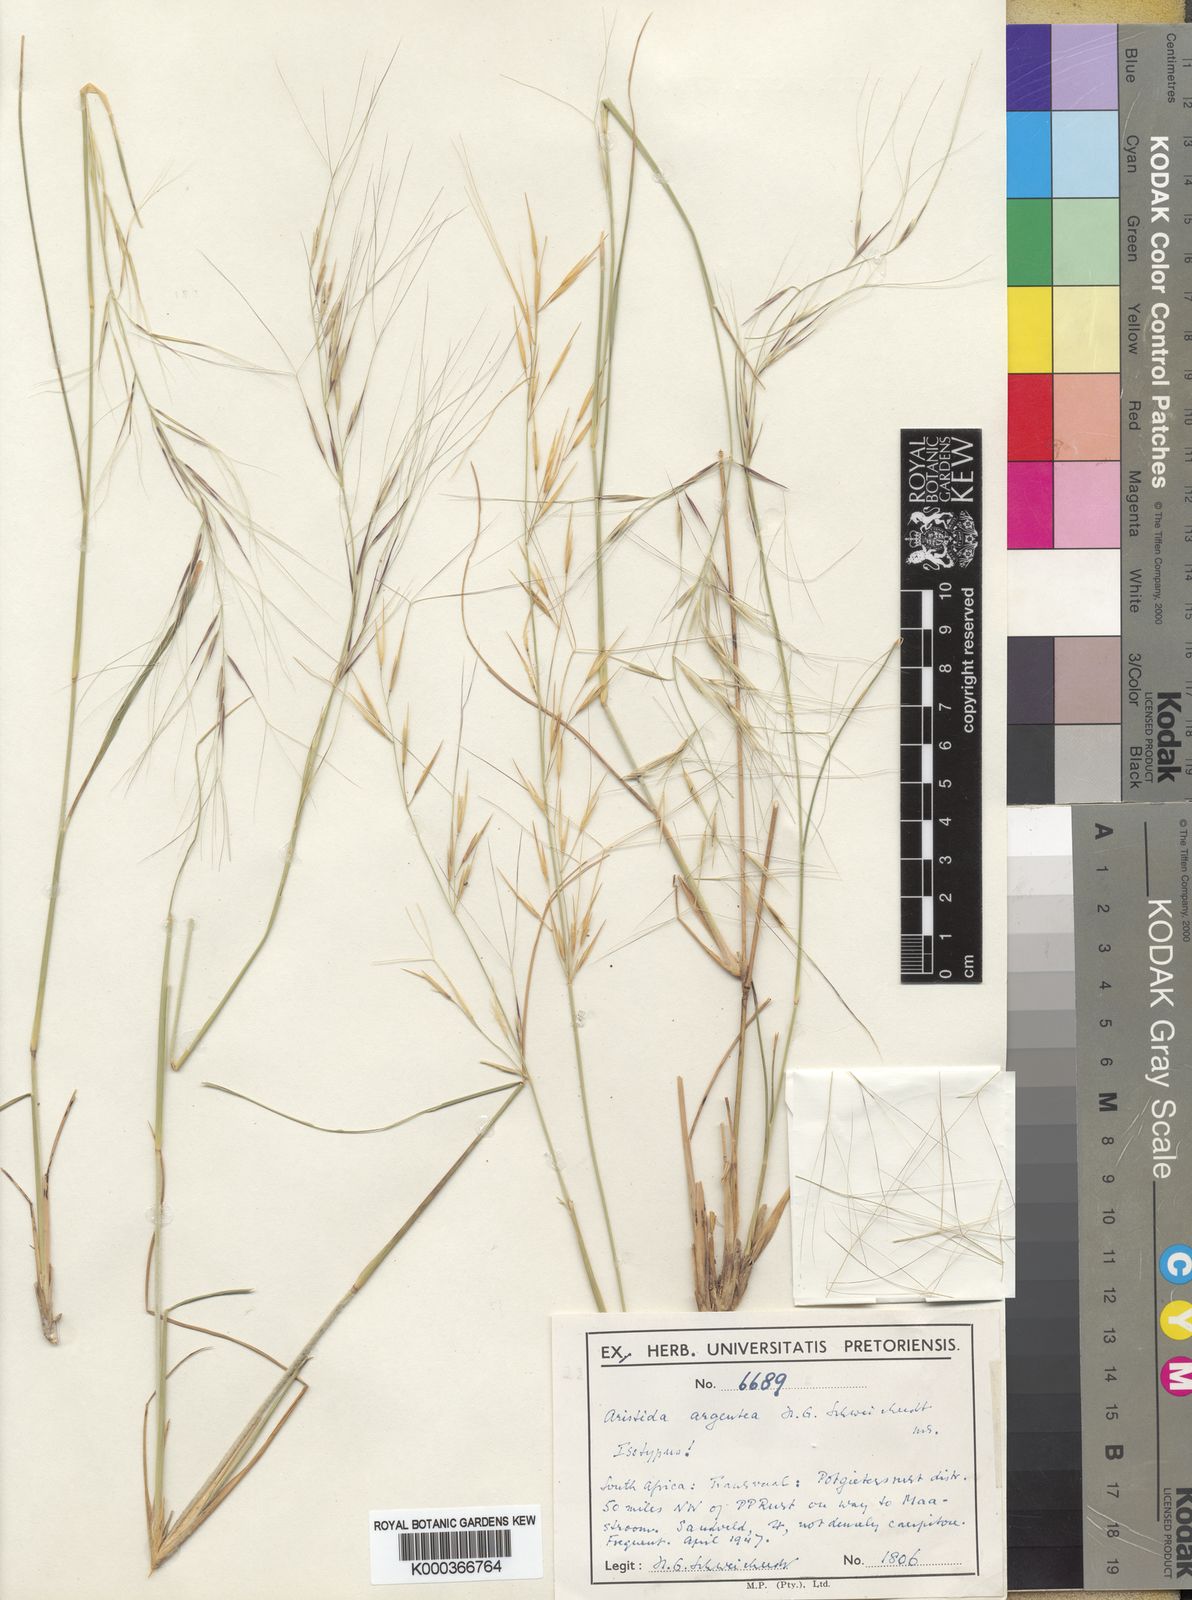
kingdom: Plantae
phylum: Tracheophyta
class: Liliopsida
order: Poales
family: Poaceae
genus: Aristida
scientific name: Aristida mollissima
